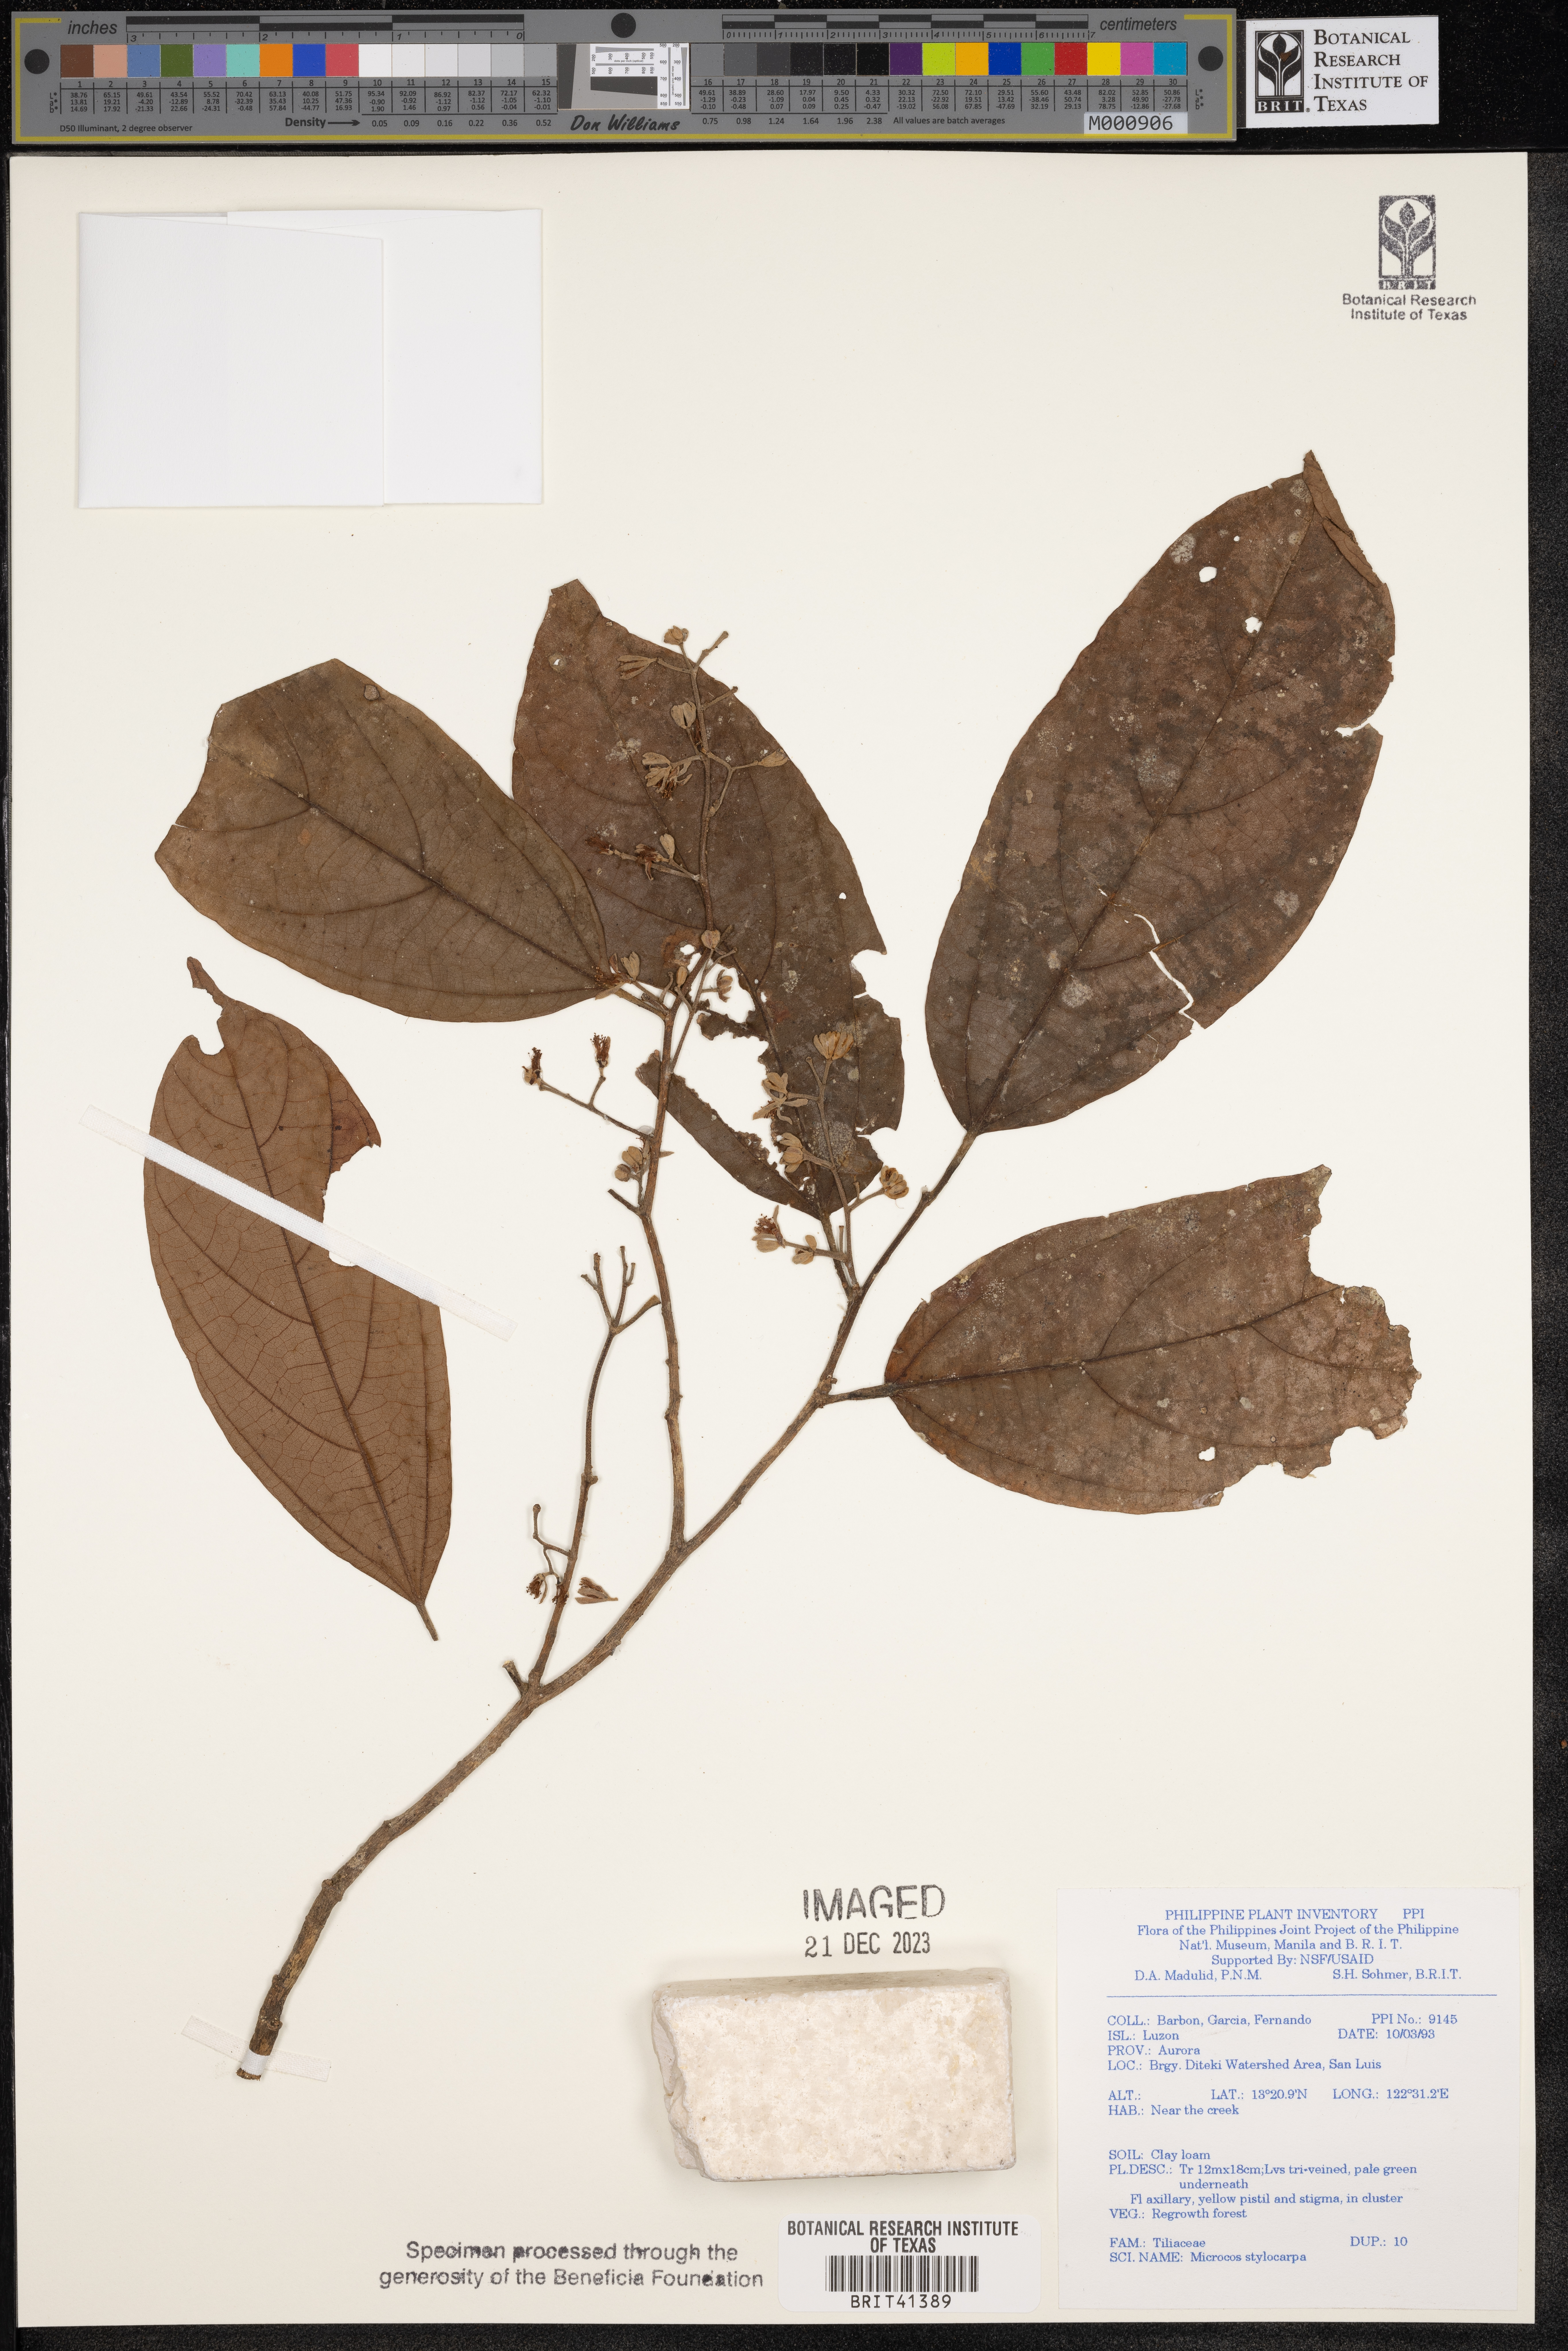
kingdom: Plantae
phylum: Tracheophyta
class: Magnoliopsida
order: Malvales
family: Malvaceae
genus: Microcos
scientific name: Microcos triflora
